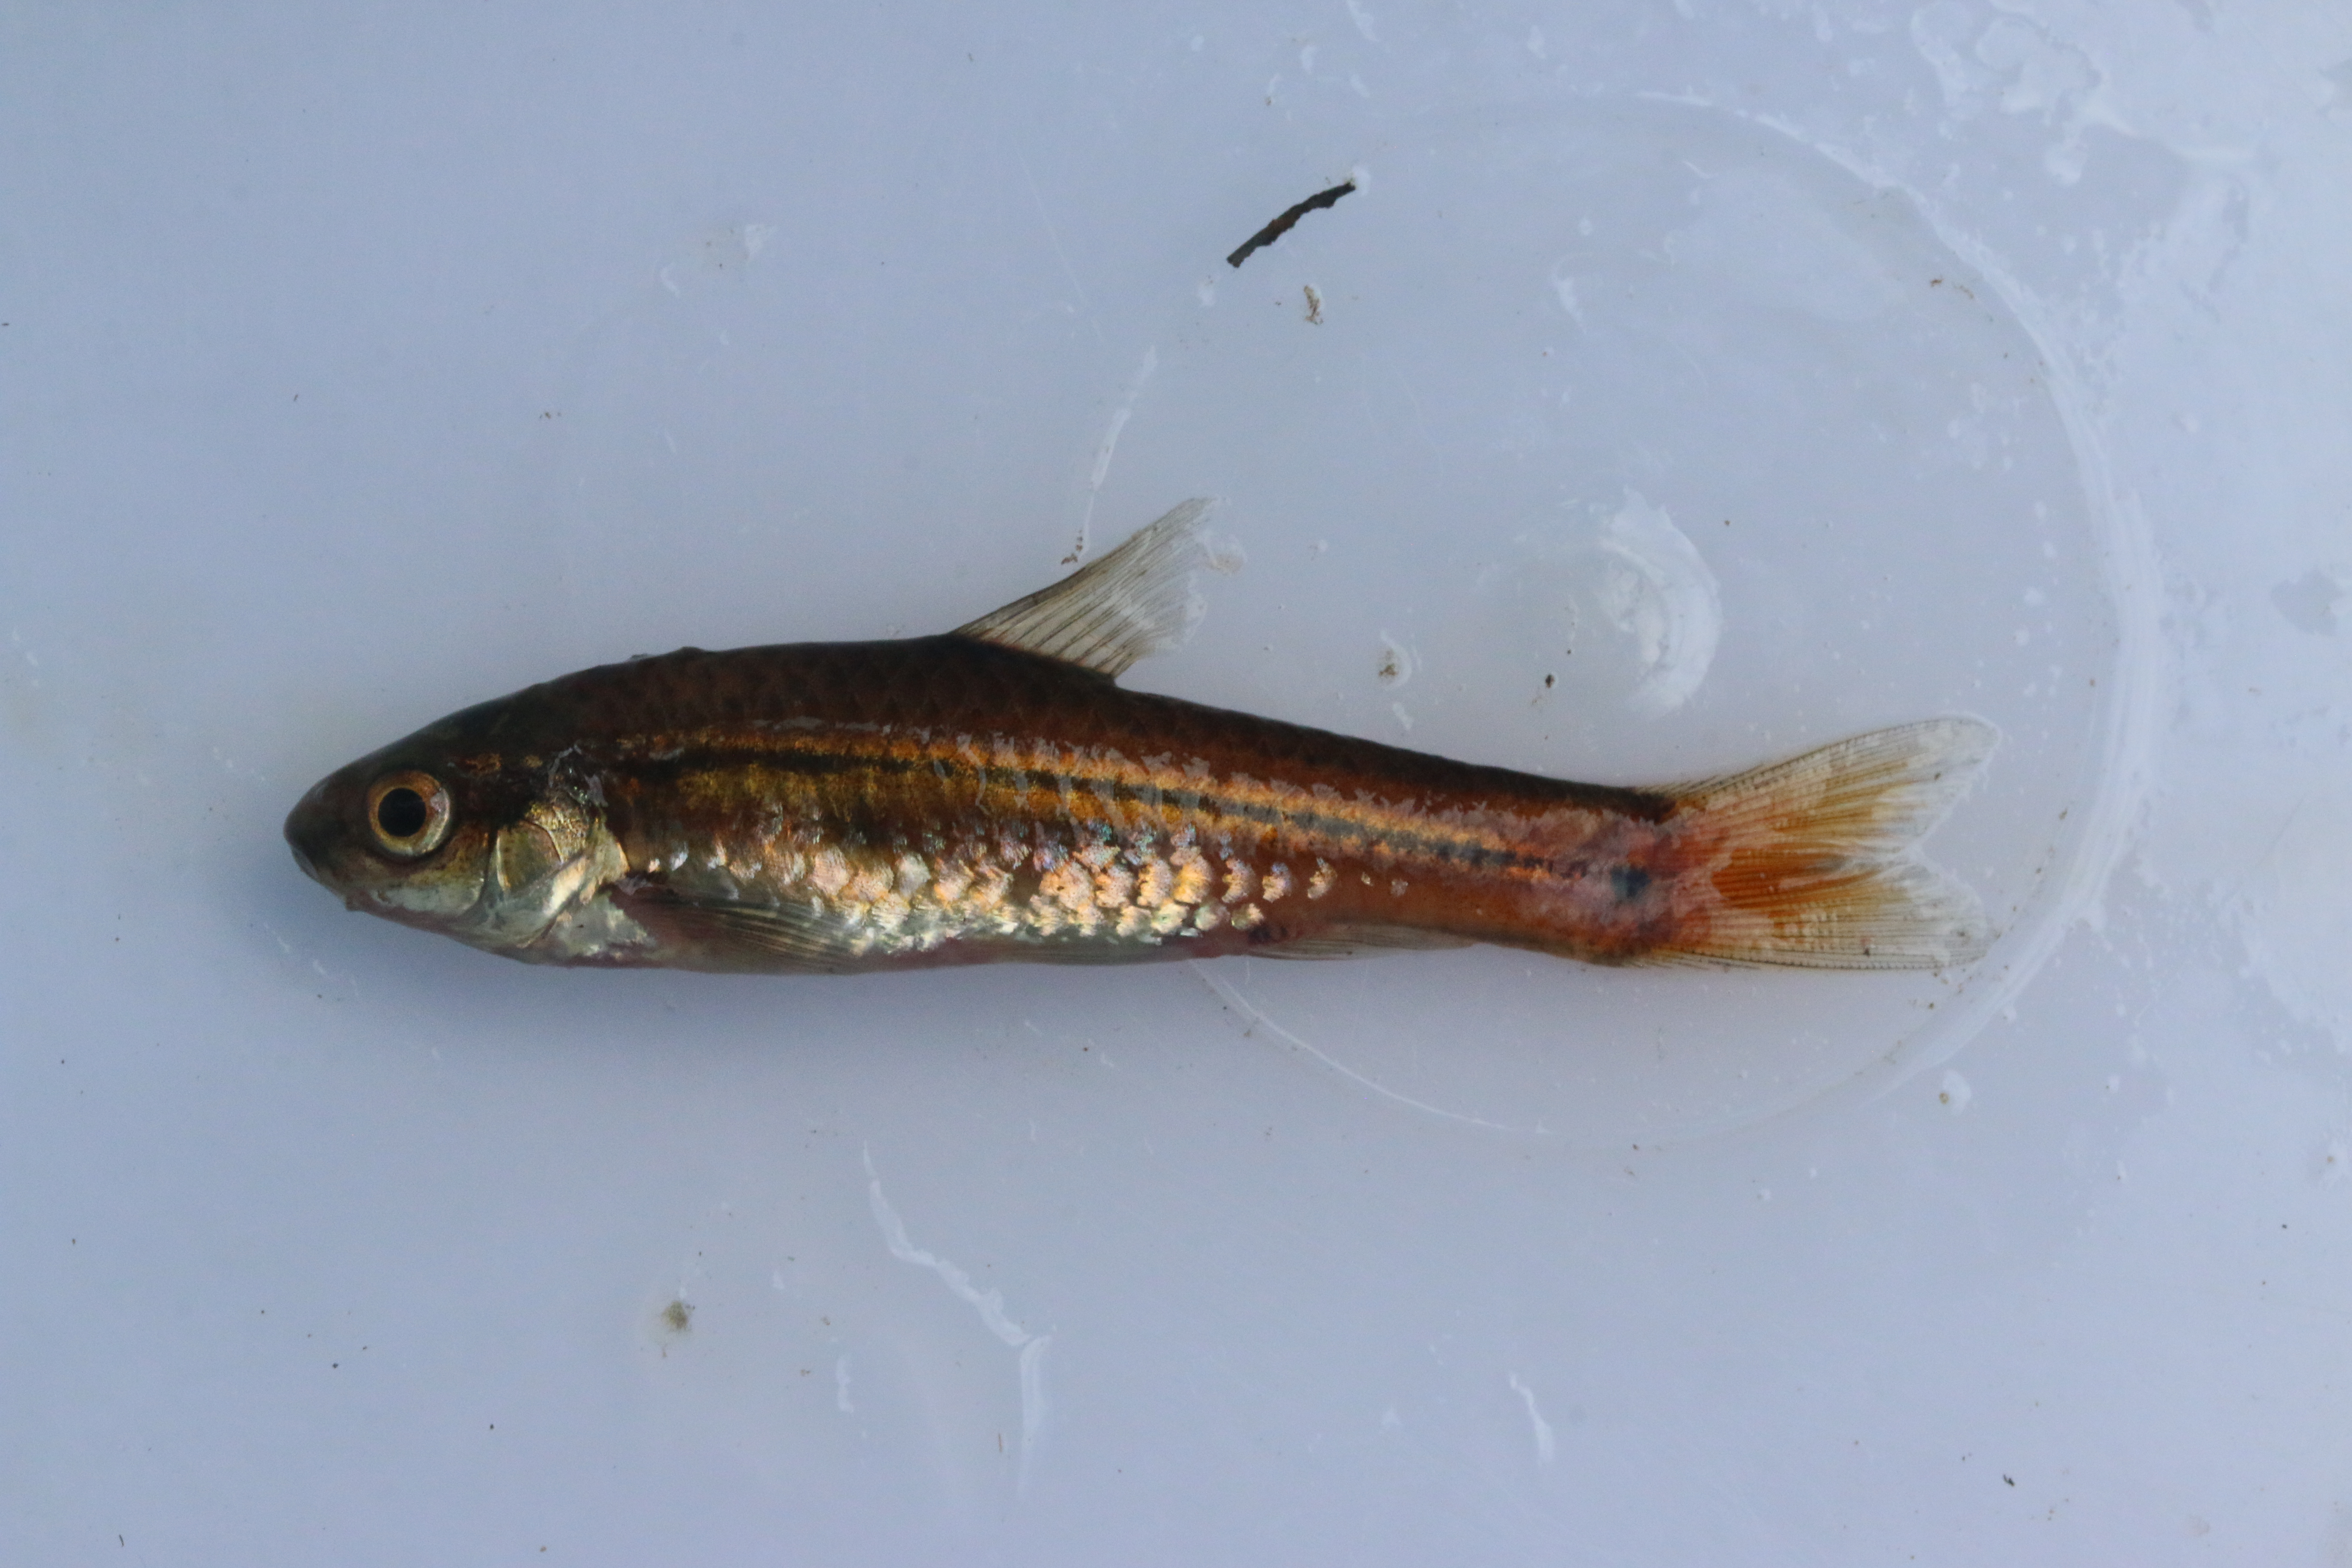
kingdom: Animalia
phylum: Chordata
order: Cypriniformes
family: Cyprinidae
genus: Enteromius
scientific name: Enteromius viviparus
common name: Bowstripe barb
